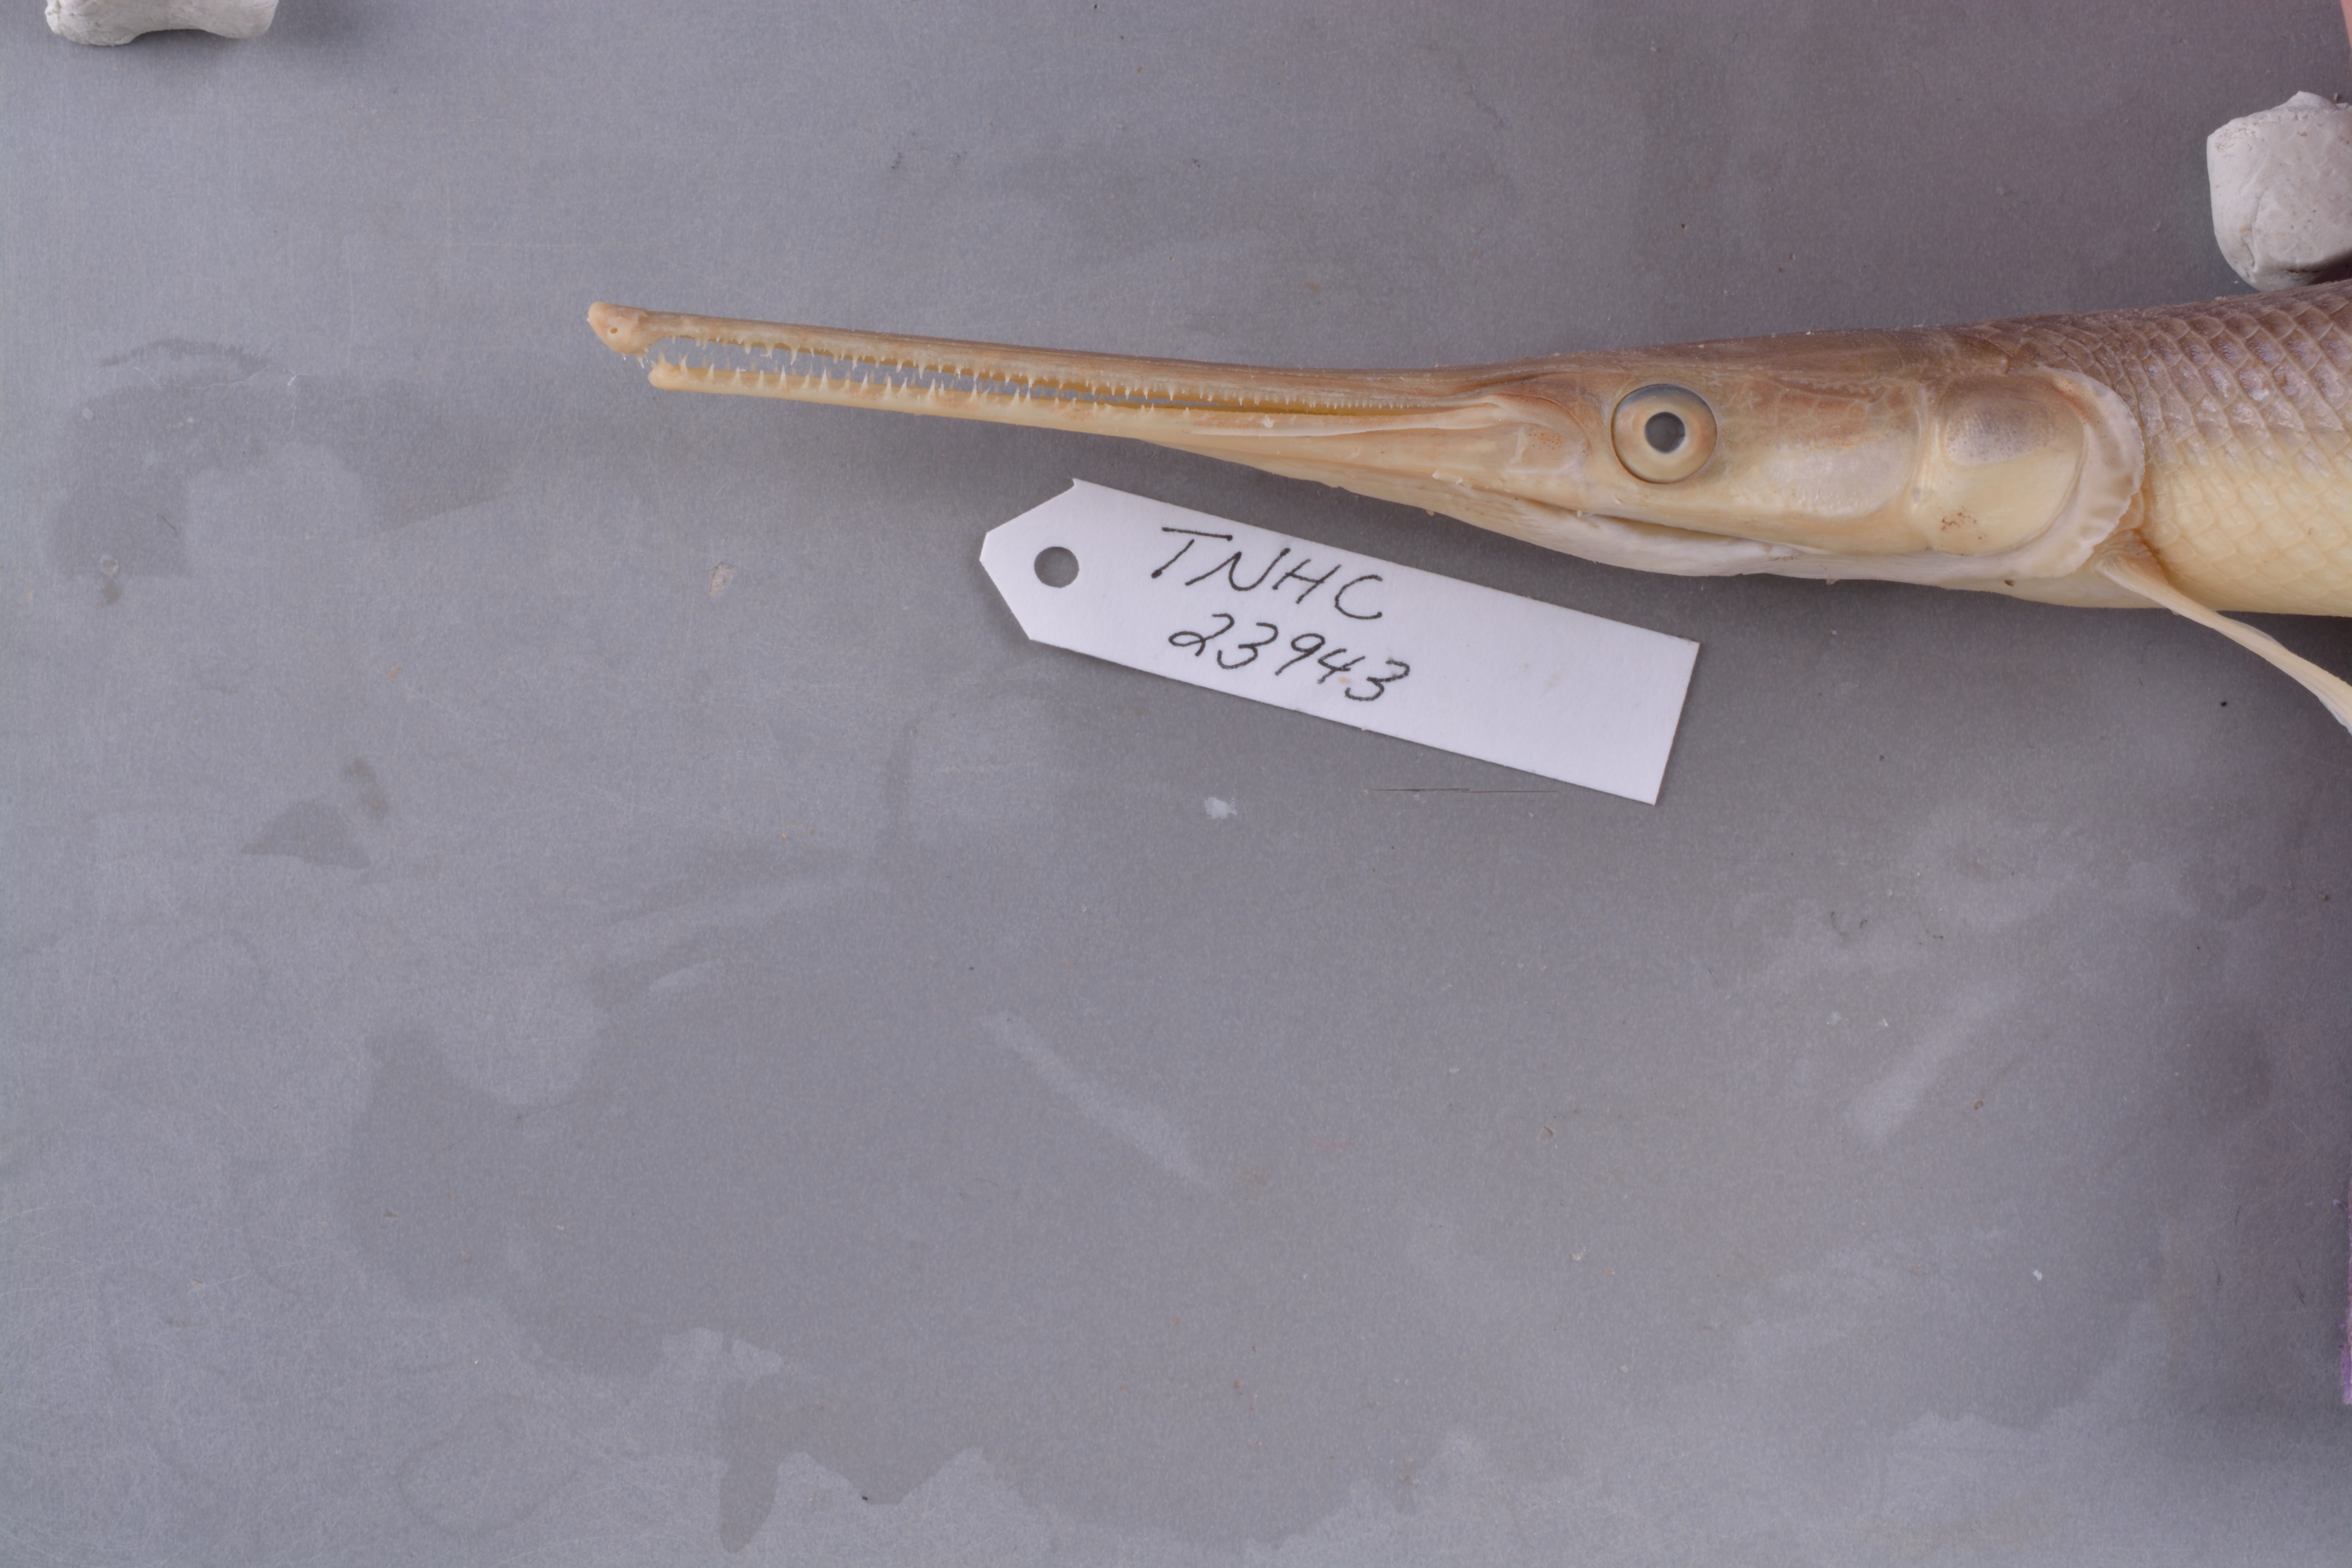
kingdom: Animalia
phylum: Chordata
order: Perciformes
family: Percidae
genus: Etheostoma
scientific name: Etheostoma gracile
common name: Slough darter
